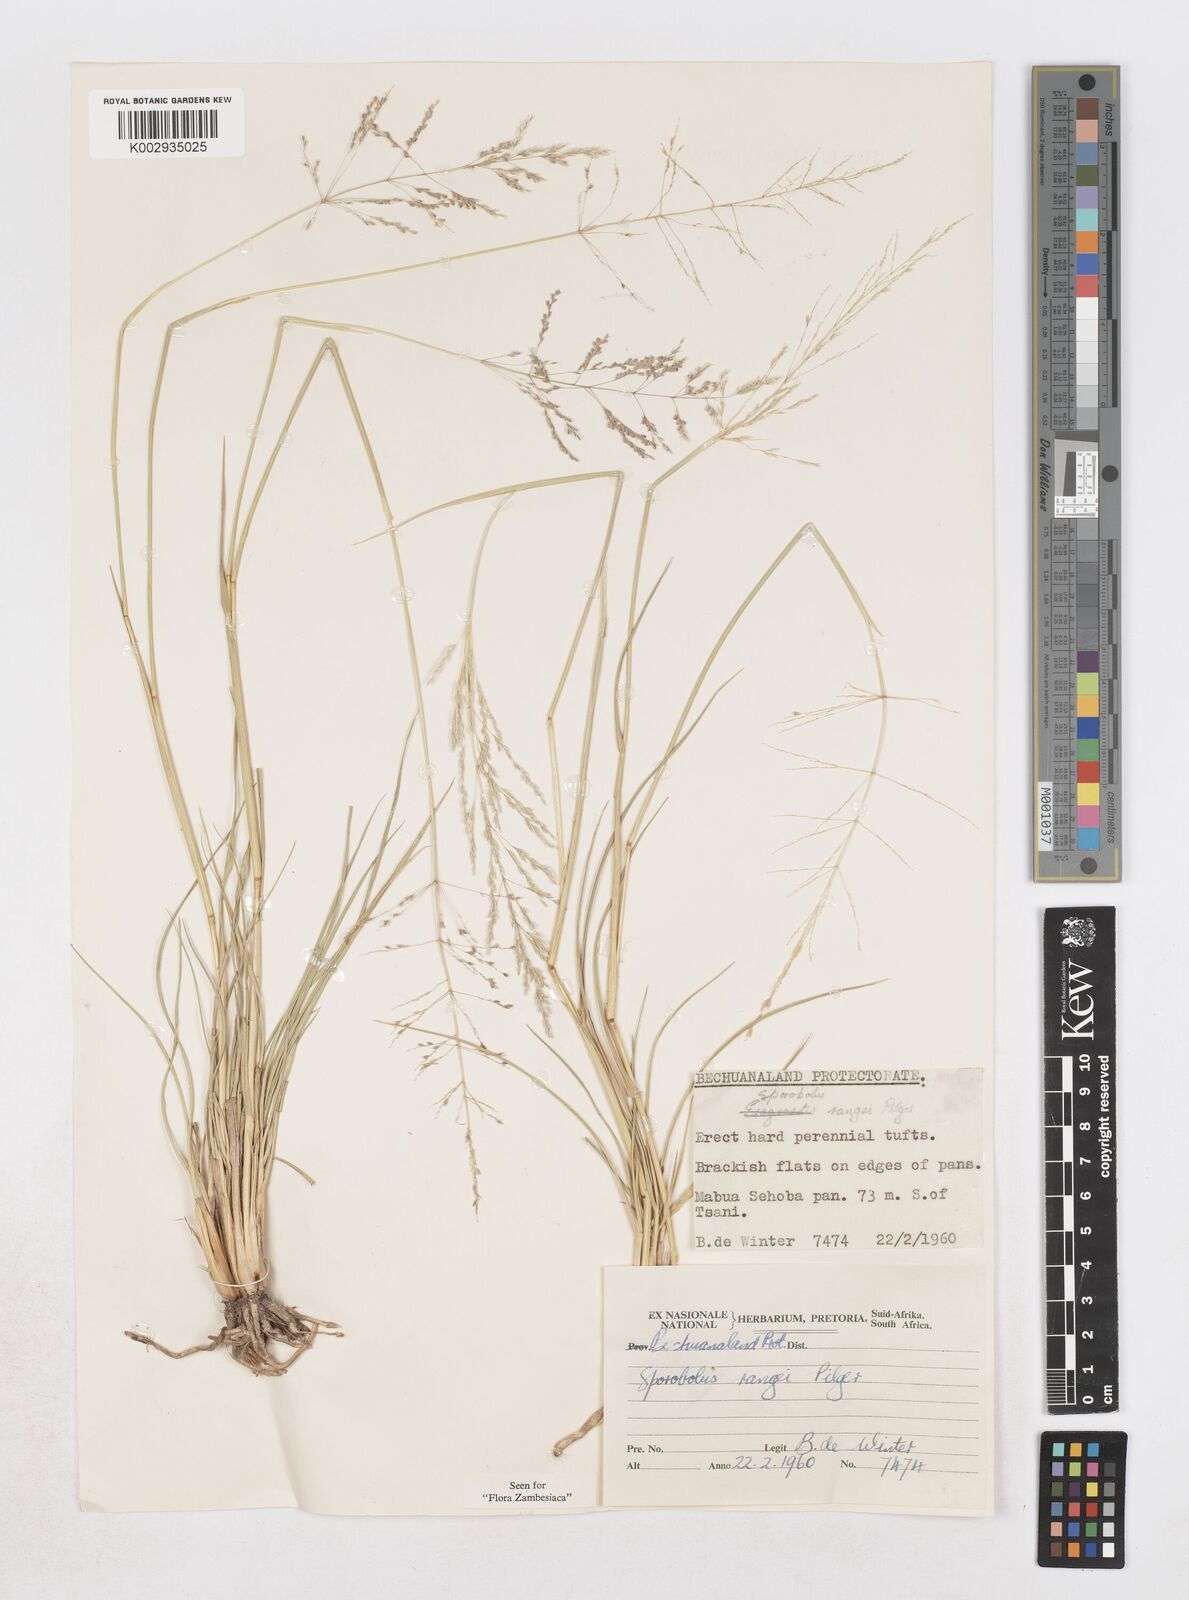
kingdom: Plantae
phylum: Tracheophyta
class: Liliopsida
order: Poales
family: Poaceae
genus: Sporobolus
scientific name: Sporobolus ioclados
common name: Pan dropseed
